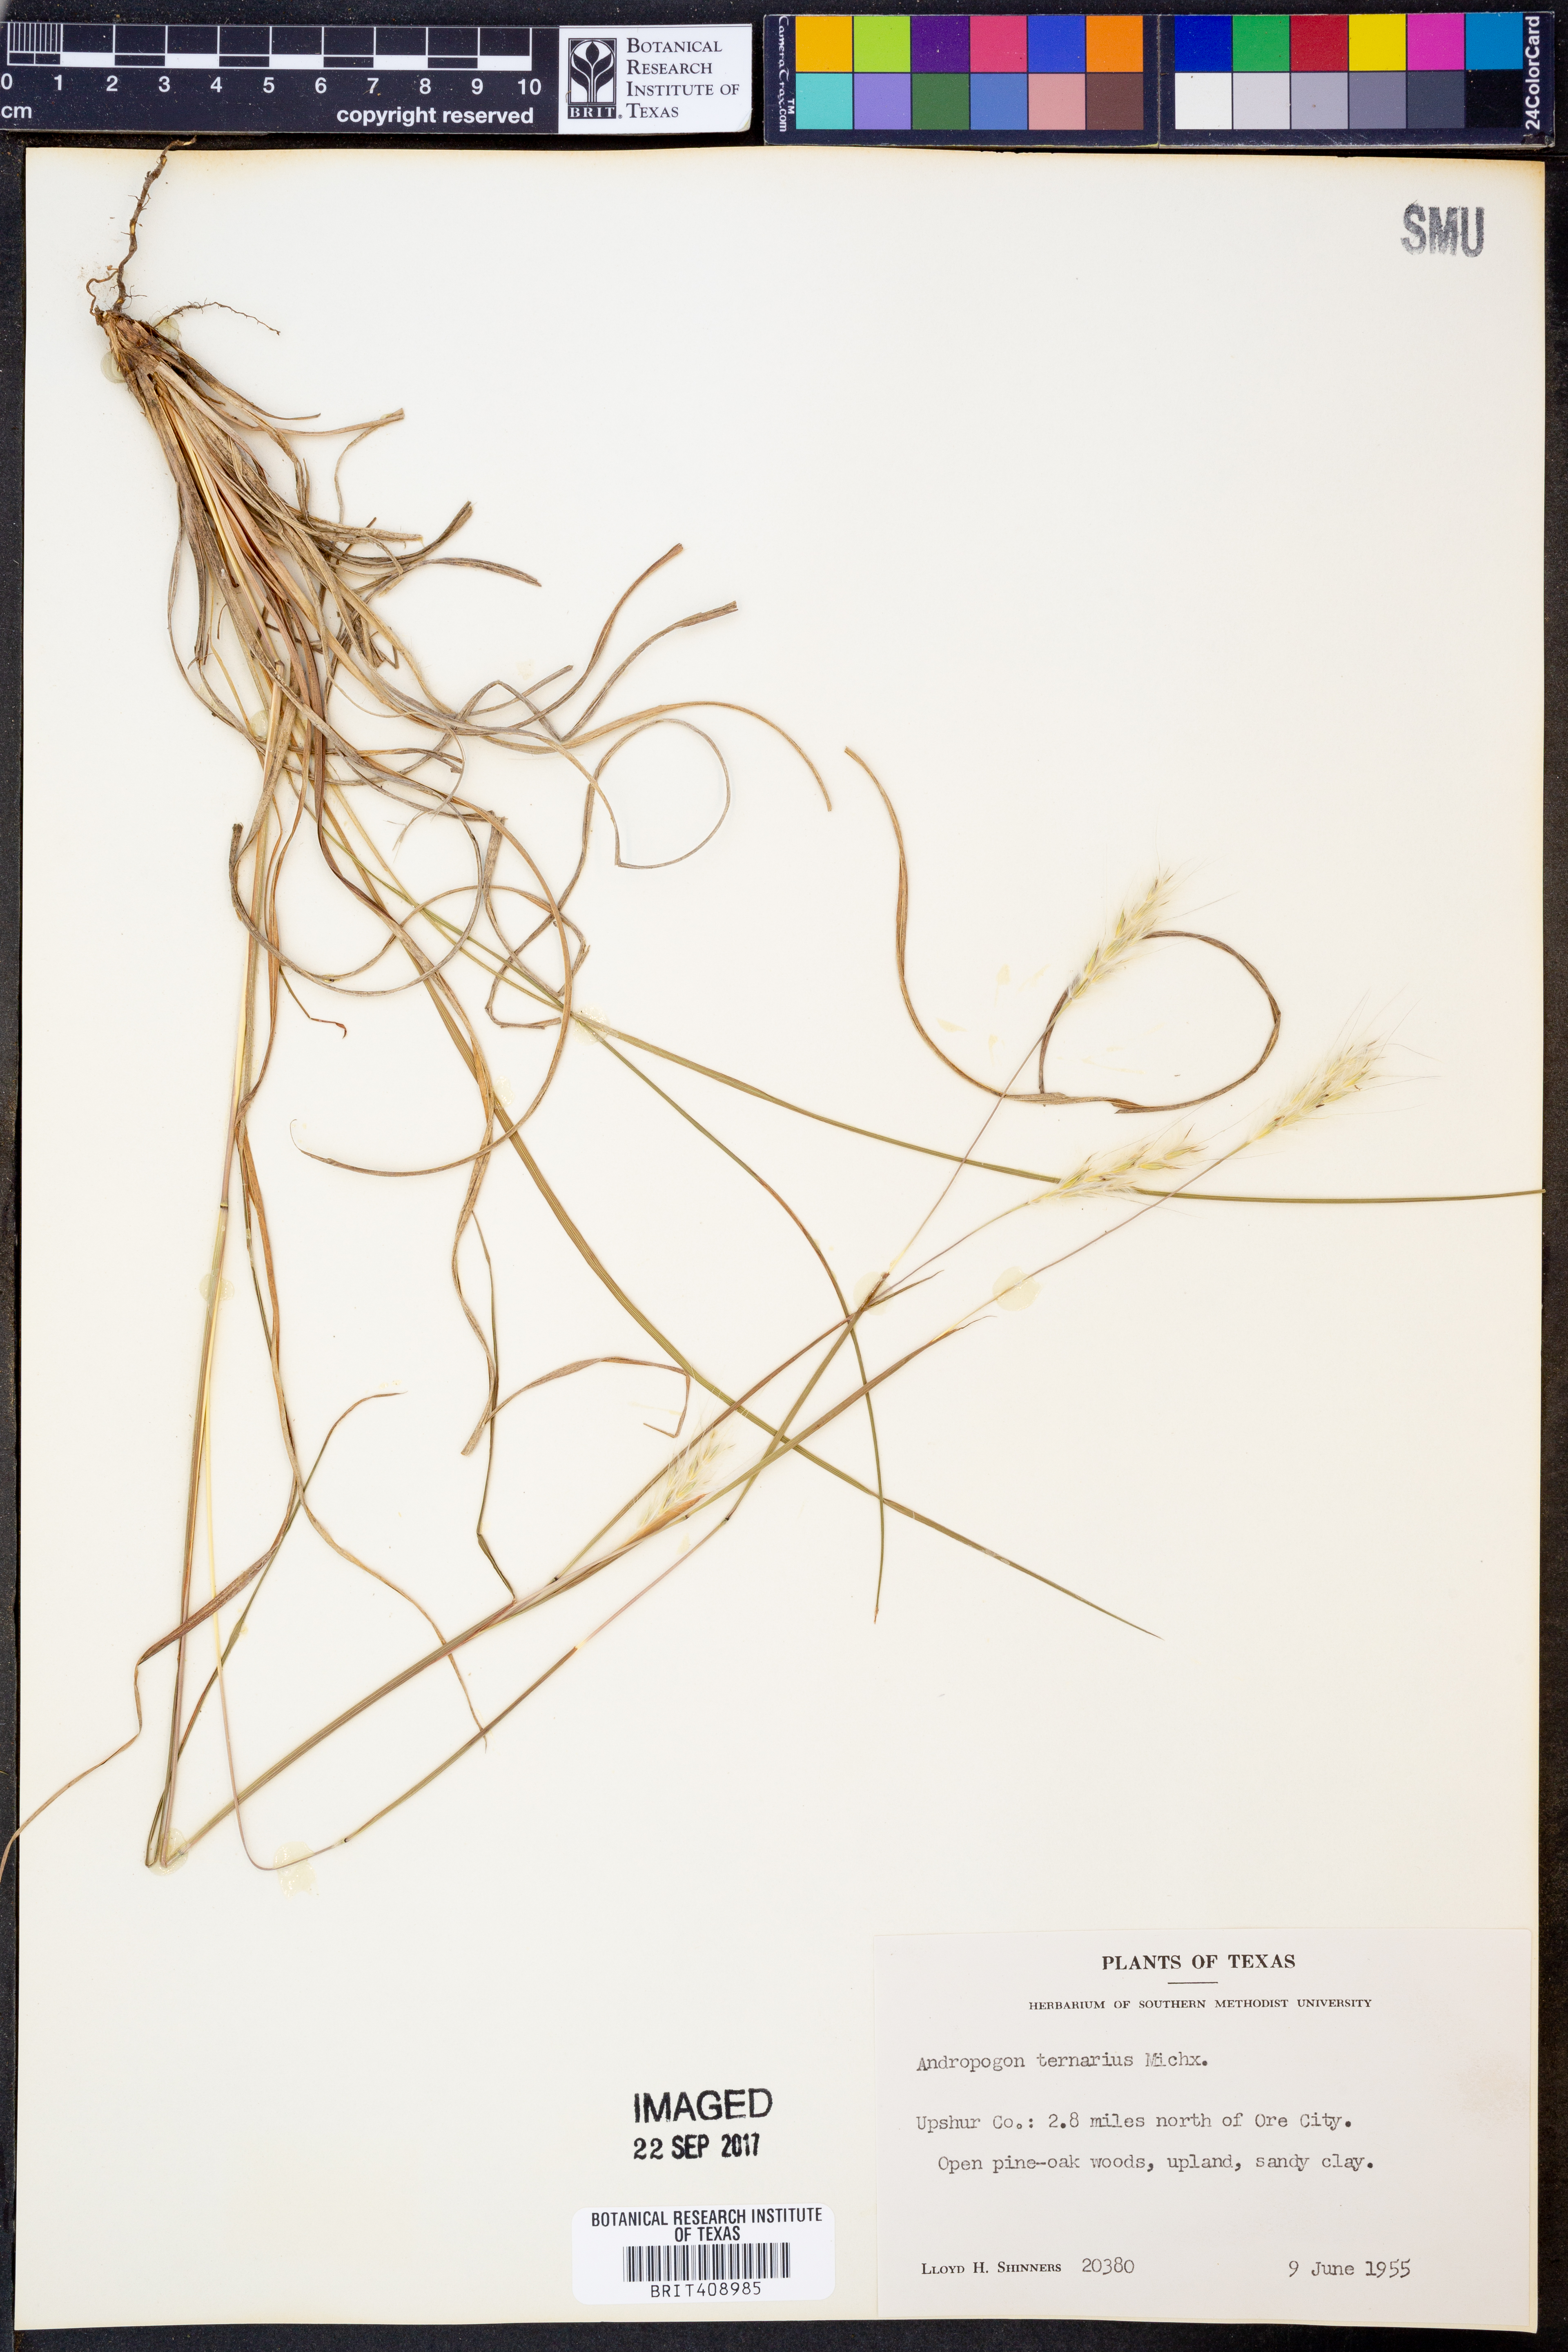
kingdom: Plantae
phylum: Tracheophyta
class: Liliopsida
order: Poales
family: Poaceae
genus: Andropogon
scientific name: Andropogon ternarius
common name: Split bluestem
